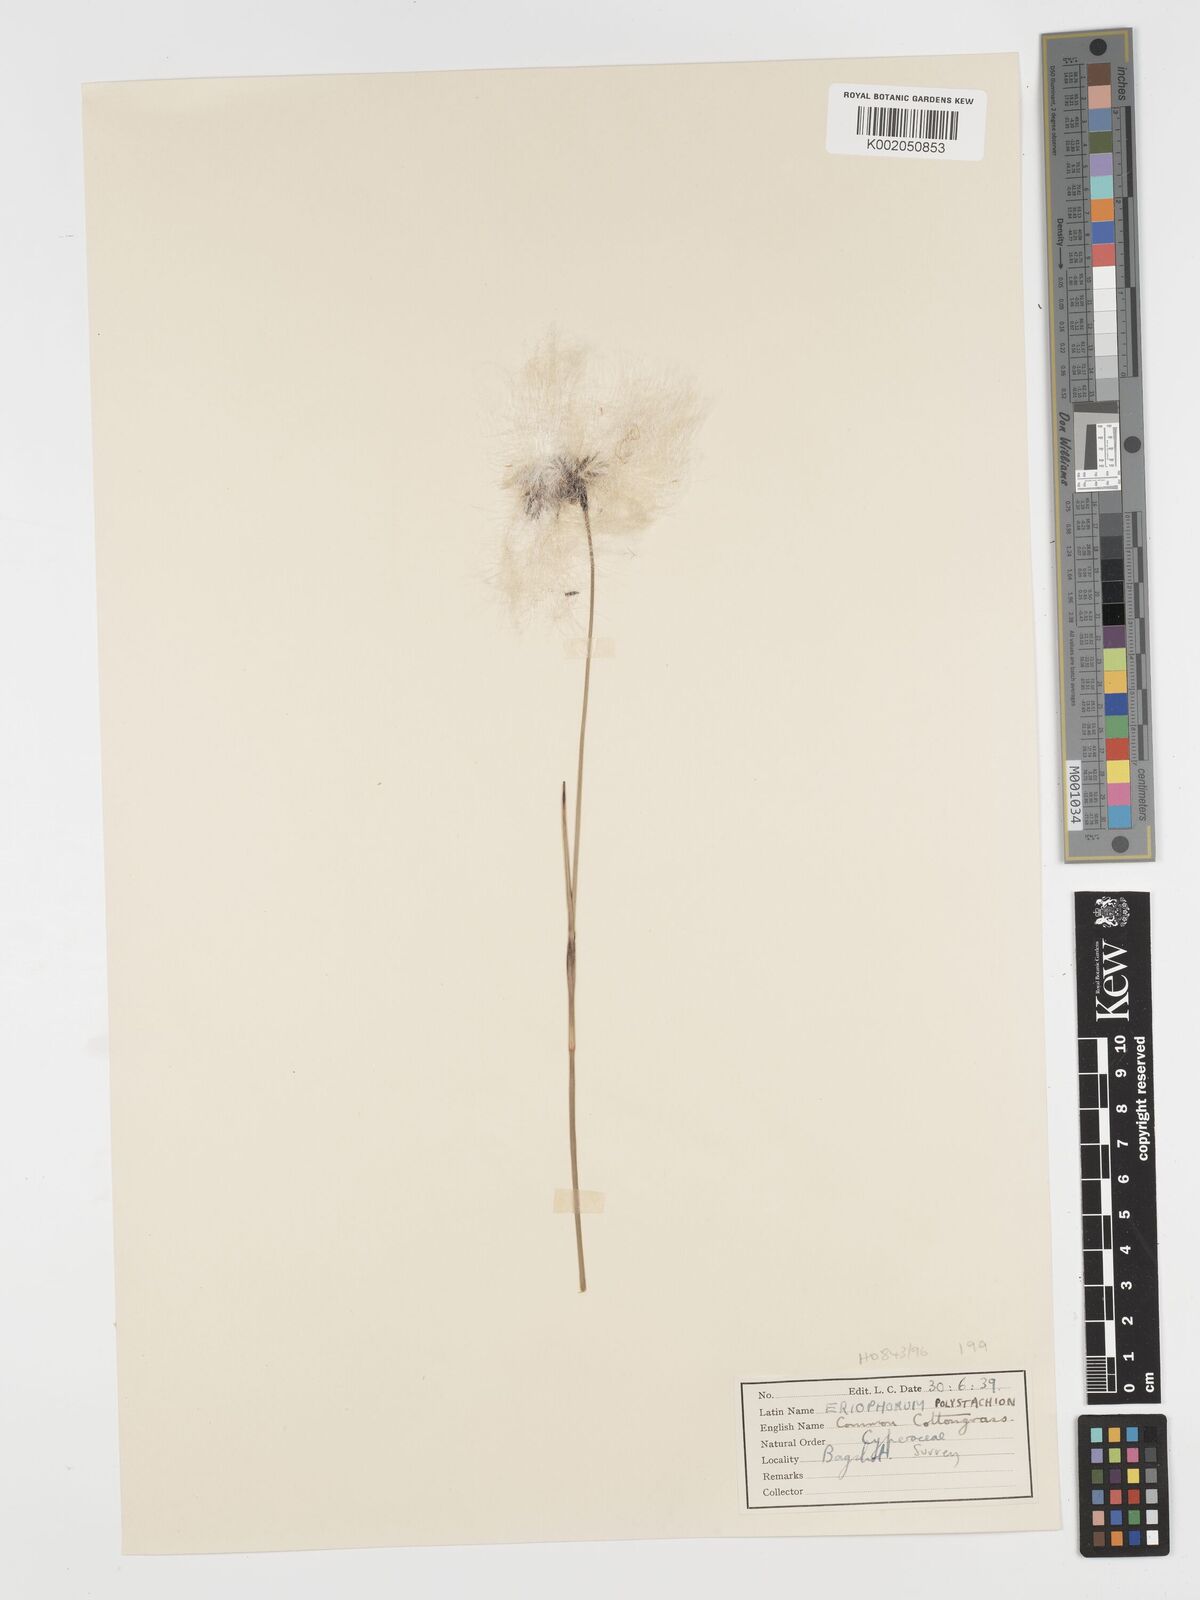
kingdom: Plantae
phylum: Tracheophyta
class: Liliopsida
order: Poales
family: Cyperaceae
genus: Eriophorum
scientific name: Eriophorum angustifolium
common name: Common cottongrass
